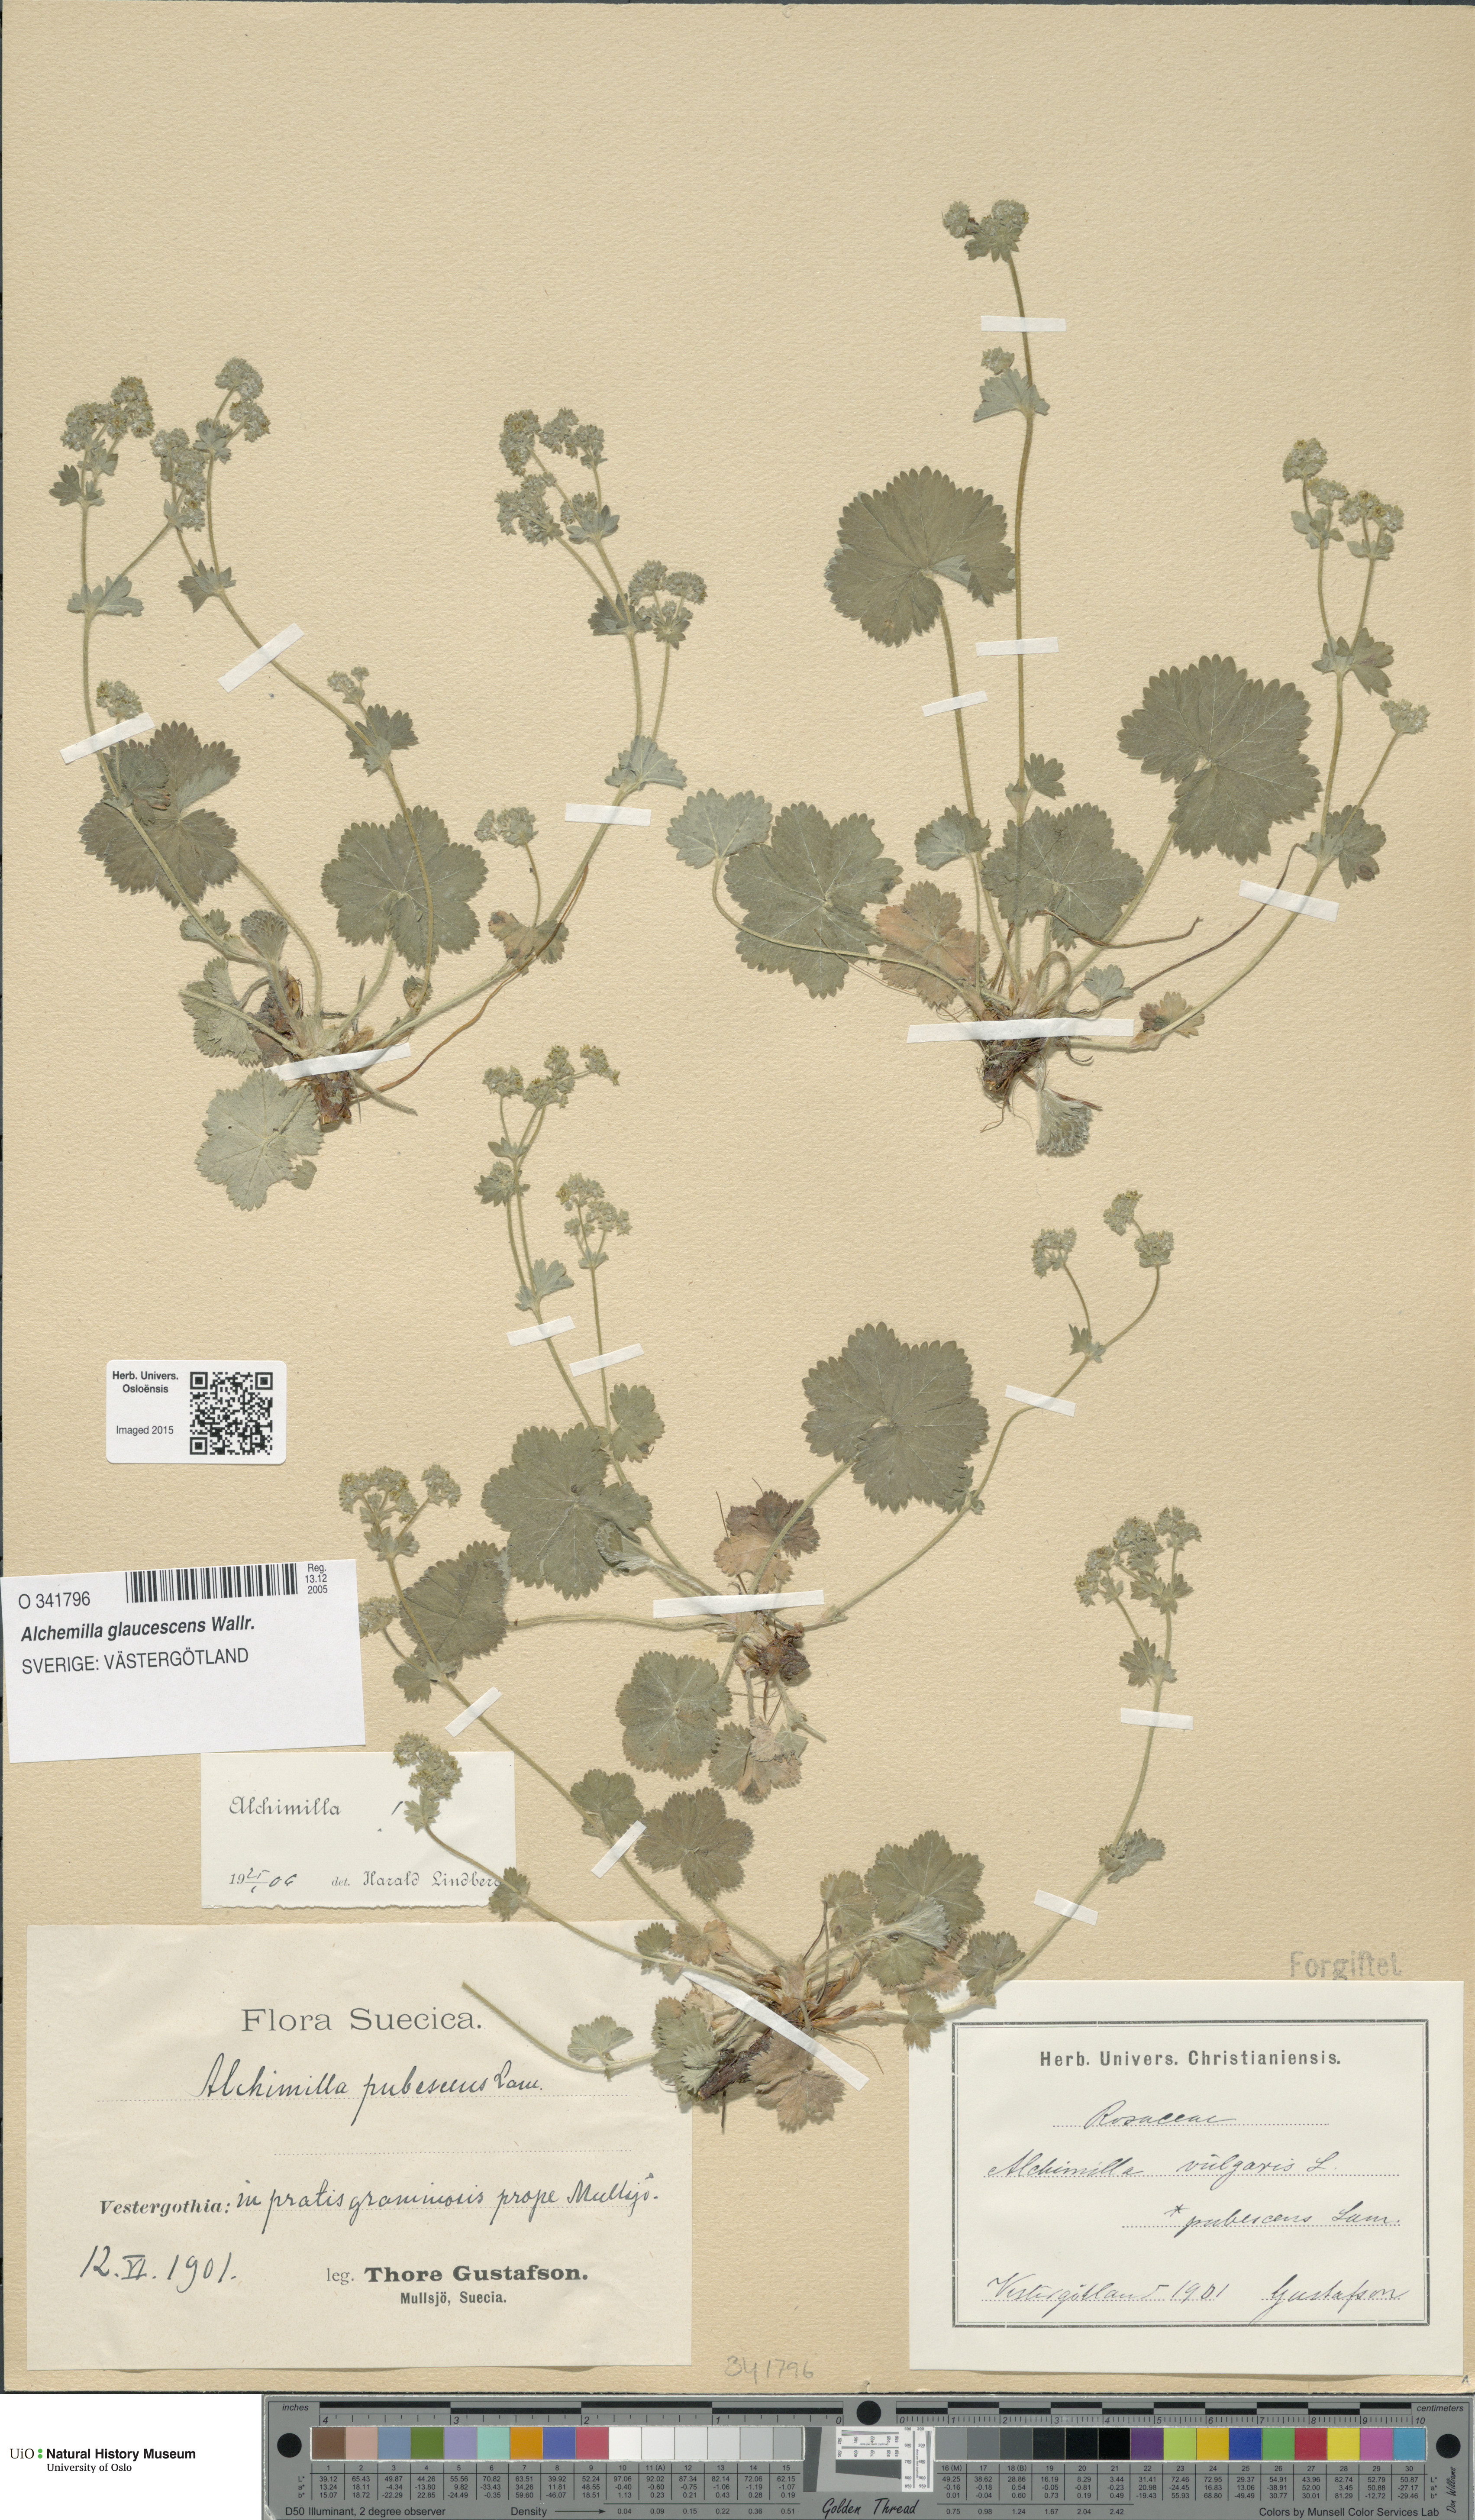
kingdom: Plantae
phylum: Tracheophyta
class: Magnoliopsida
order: Rosales
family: Rosaceae
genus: Alchemilla
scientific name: Alchemilla glaucescens
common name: Silky lady's mantle
